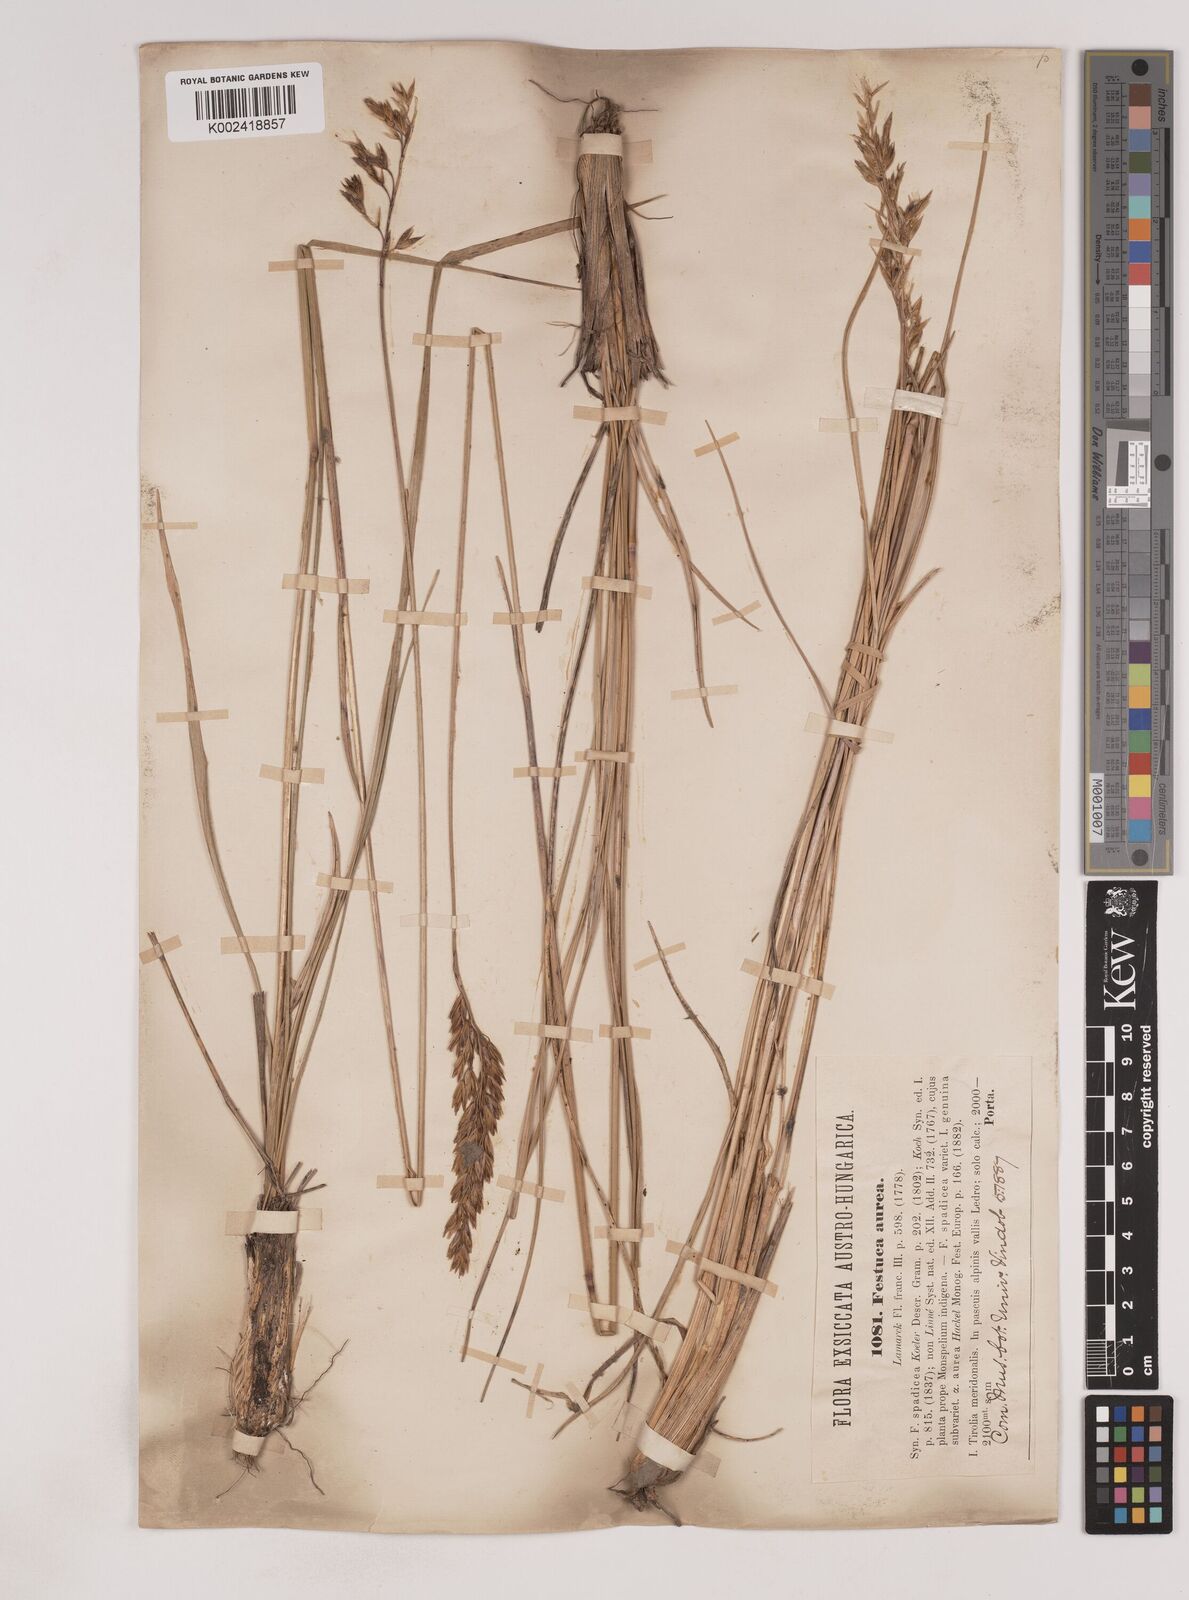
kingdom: Plantae
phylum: Tracheophyta
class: Liliopsida
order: Poales
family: Poaceae
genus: Patzkea
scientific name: Patzkea paniculata
